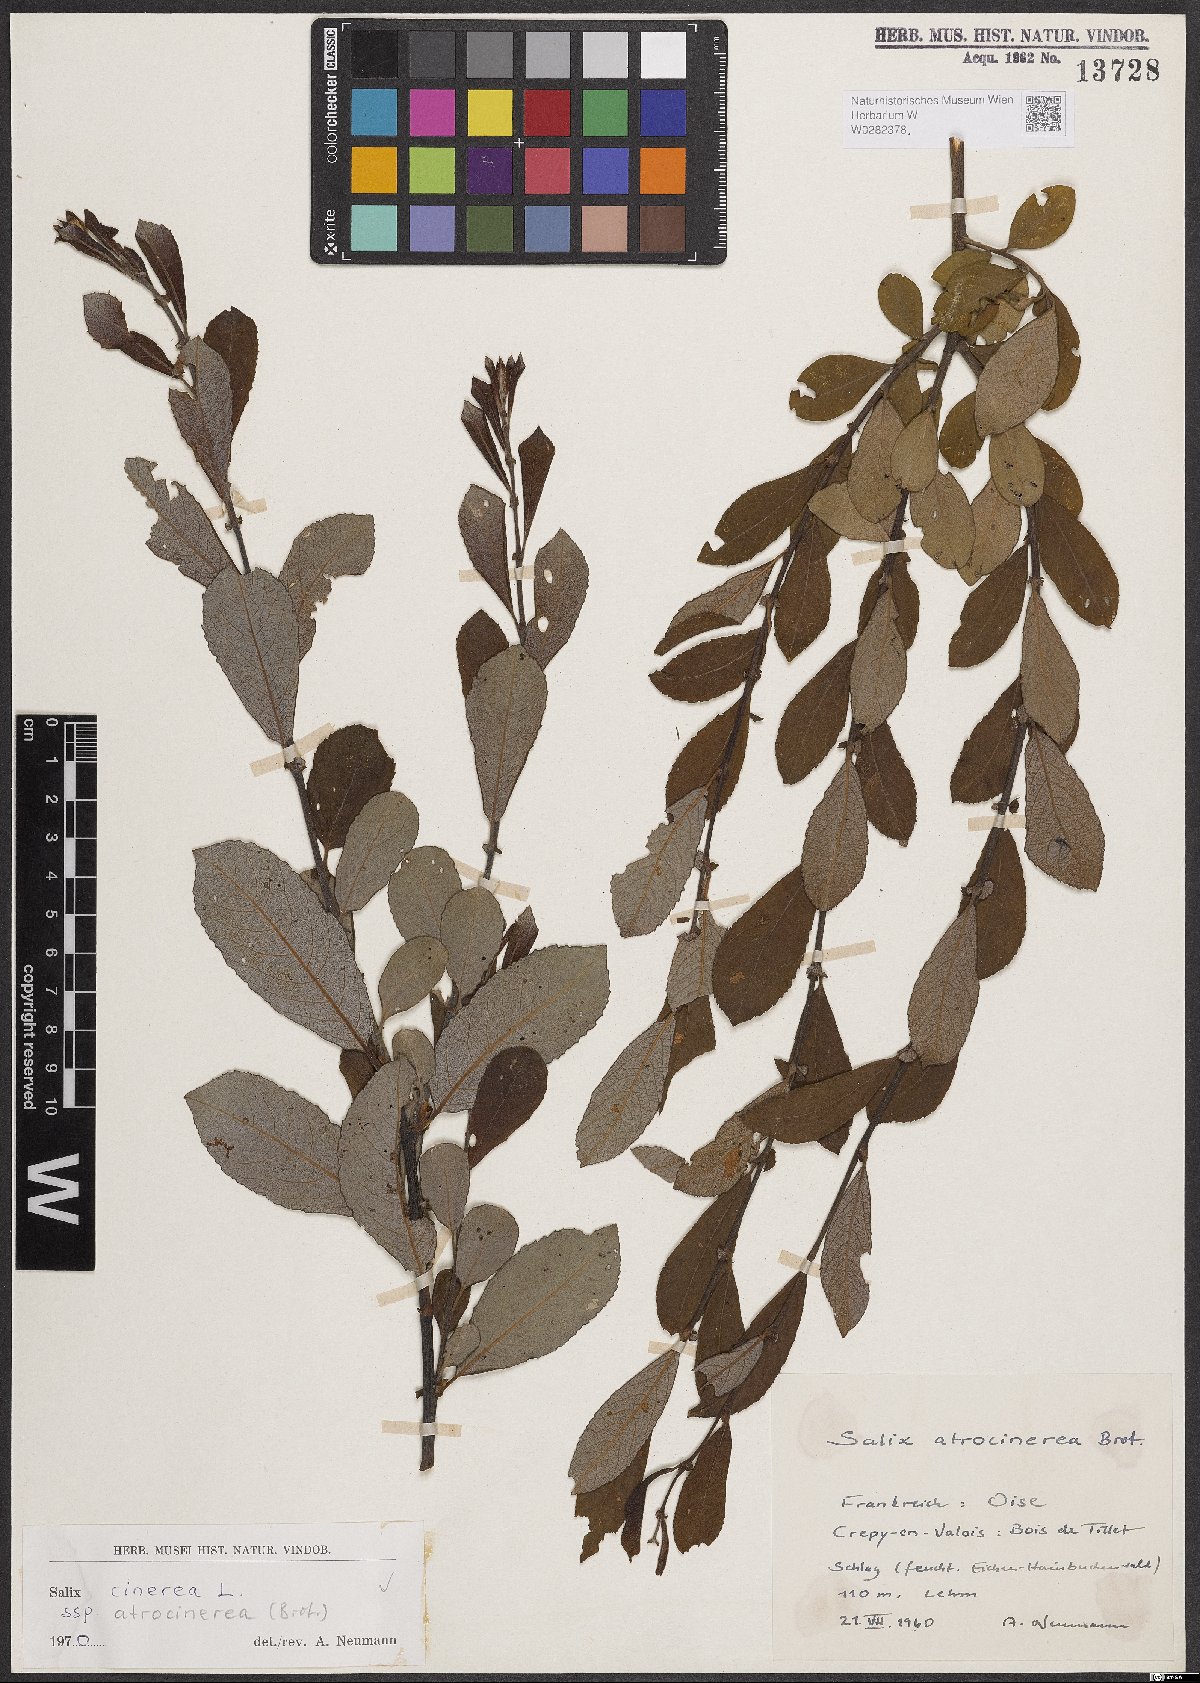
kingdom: Plantae
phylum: Tracheophyta
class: Magnoliopsida
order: Malpighiales
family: Salicaceae
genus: Salix
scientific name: Salix atrocinerea
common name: Rusty willow
